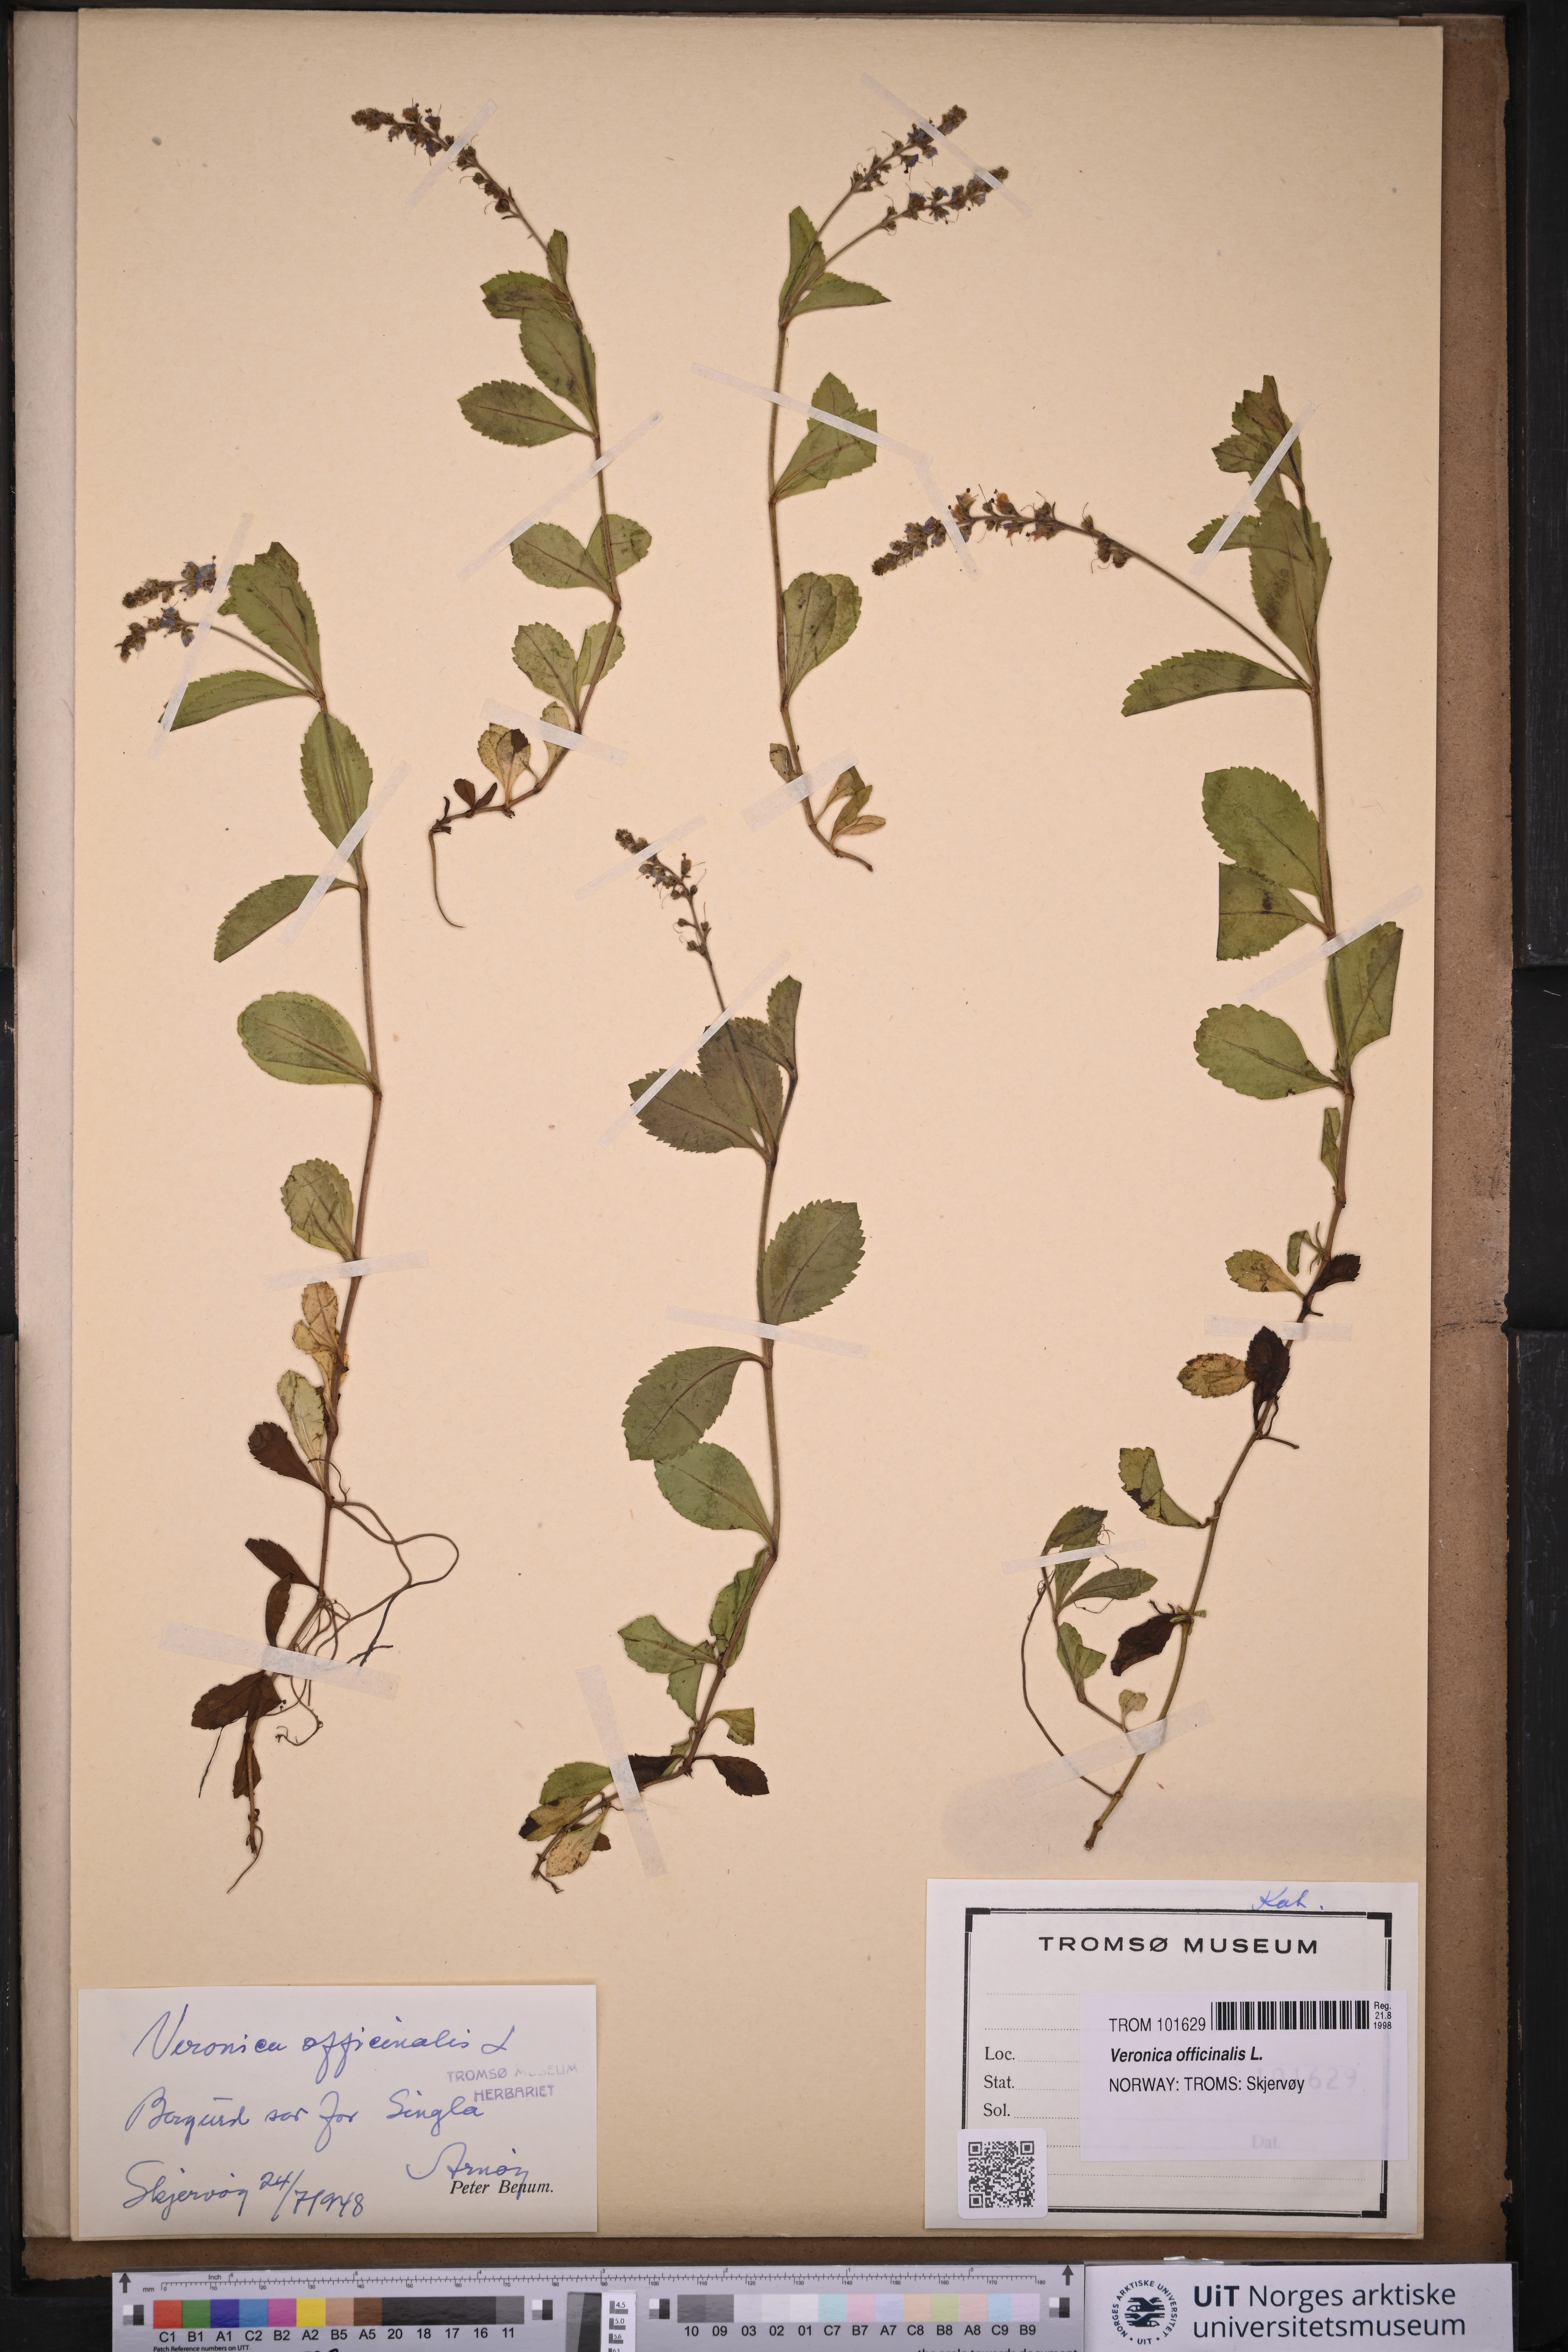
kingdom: Plantae
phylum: Tracheophyta
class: Magnoliopsida
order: Lamiales
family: Plantaginaceae
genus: Veronica
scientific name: Veronica officinalis
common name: Common speedwell
